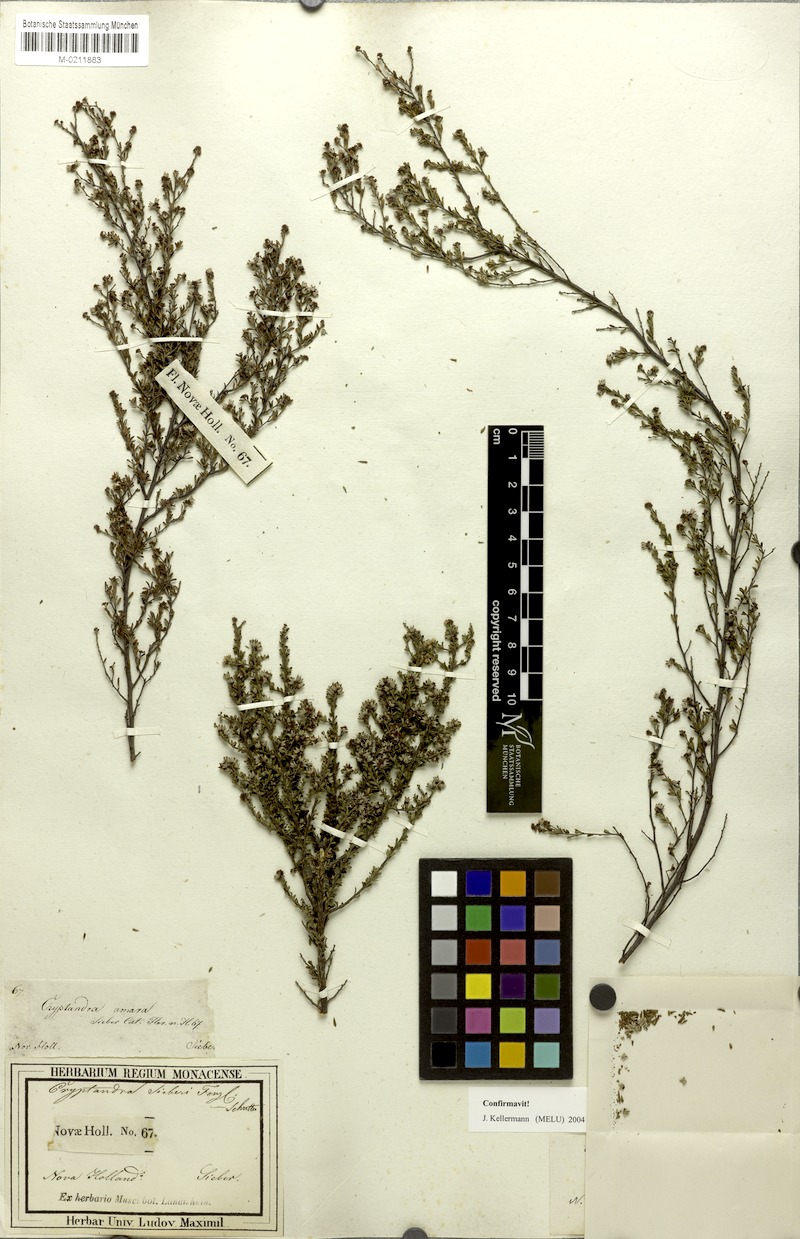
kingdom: Plantae
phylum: Tracheophyta
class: Magnoliopsida
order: Rosales
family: Rhamnaceae
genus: Cryptandra
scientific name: Cryptandra amara
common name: Bitter cryptandra
